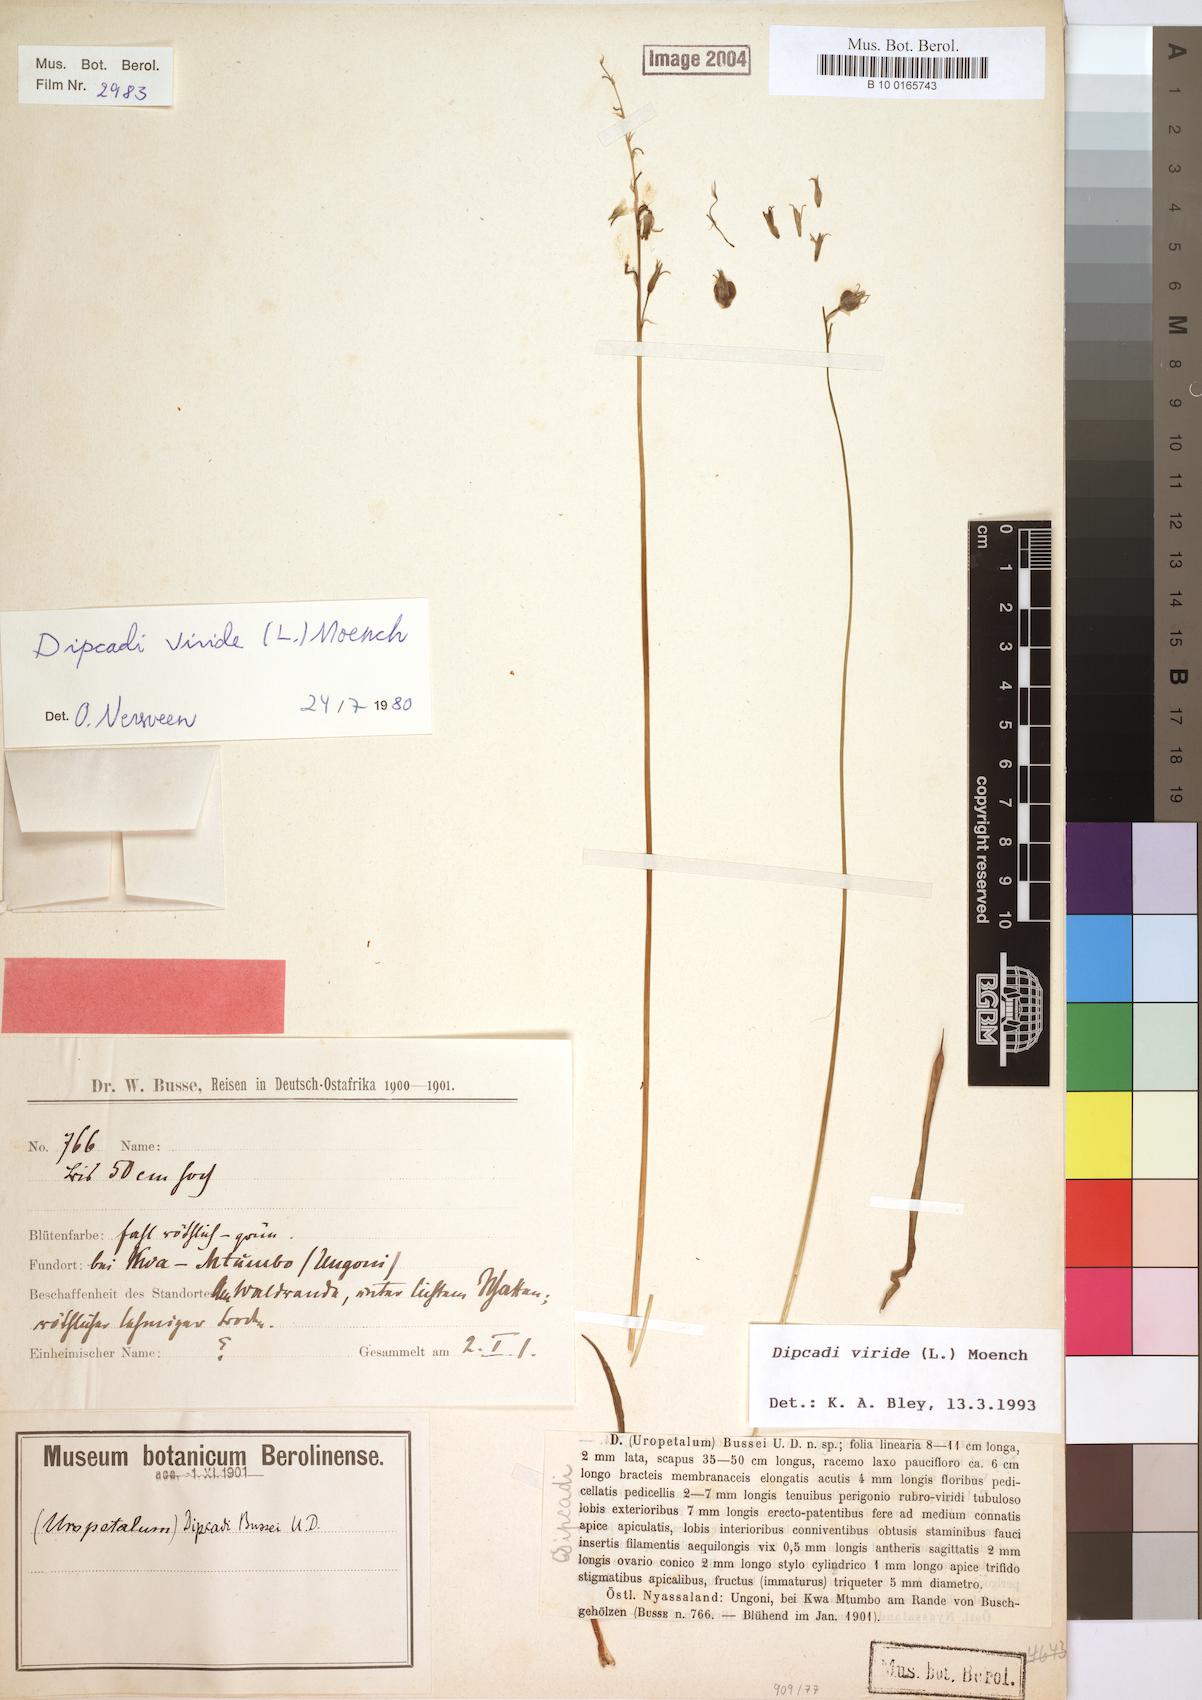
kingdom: Plantae
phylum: Tracheophyta
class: Liliopsida
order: Asparagales
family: Asparagaceae
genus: Dipcadi
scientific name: Dipcadi viride
